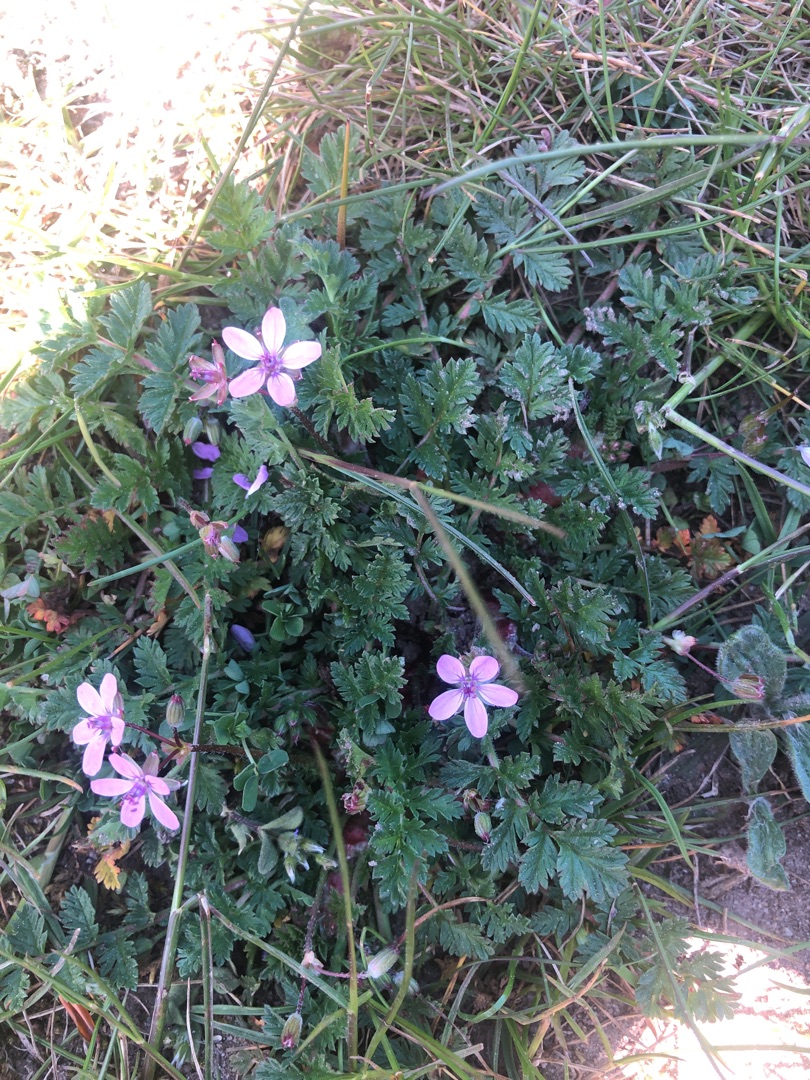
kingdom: Plantae
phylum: Tracheophyta
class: Magnoliopsida
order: Geraniales
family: Geraniaceae
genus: Erodium
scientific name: Erodium cicutarium
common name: Hejrenæb
